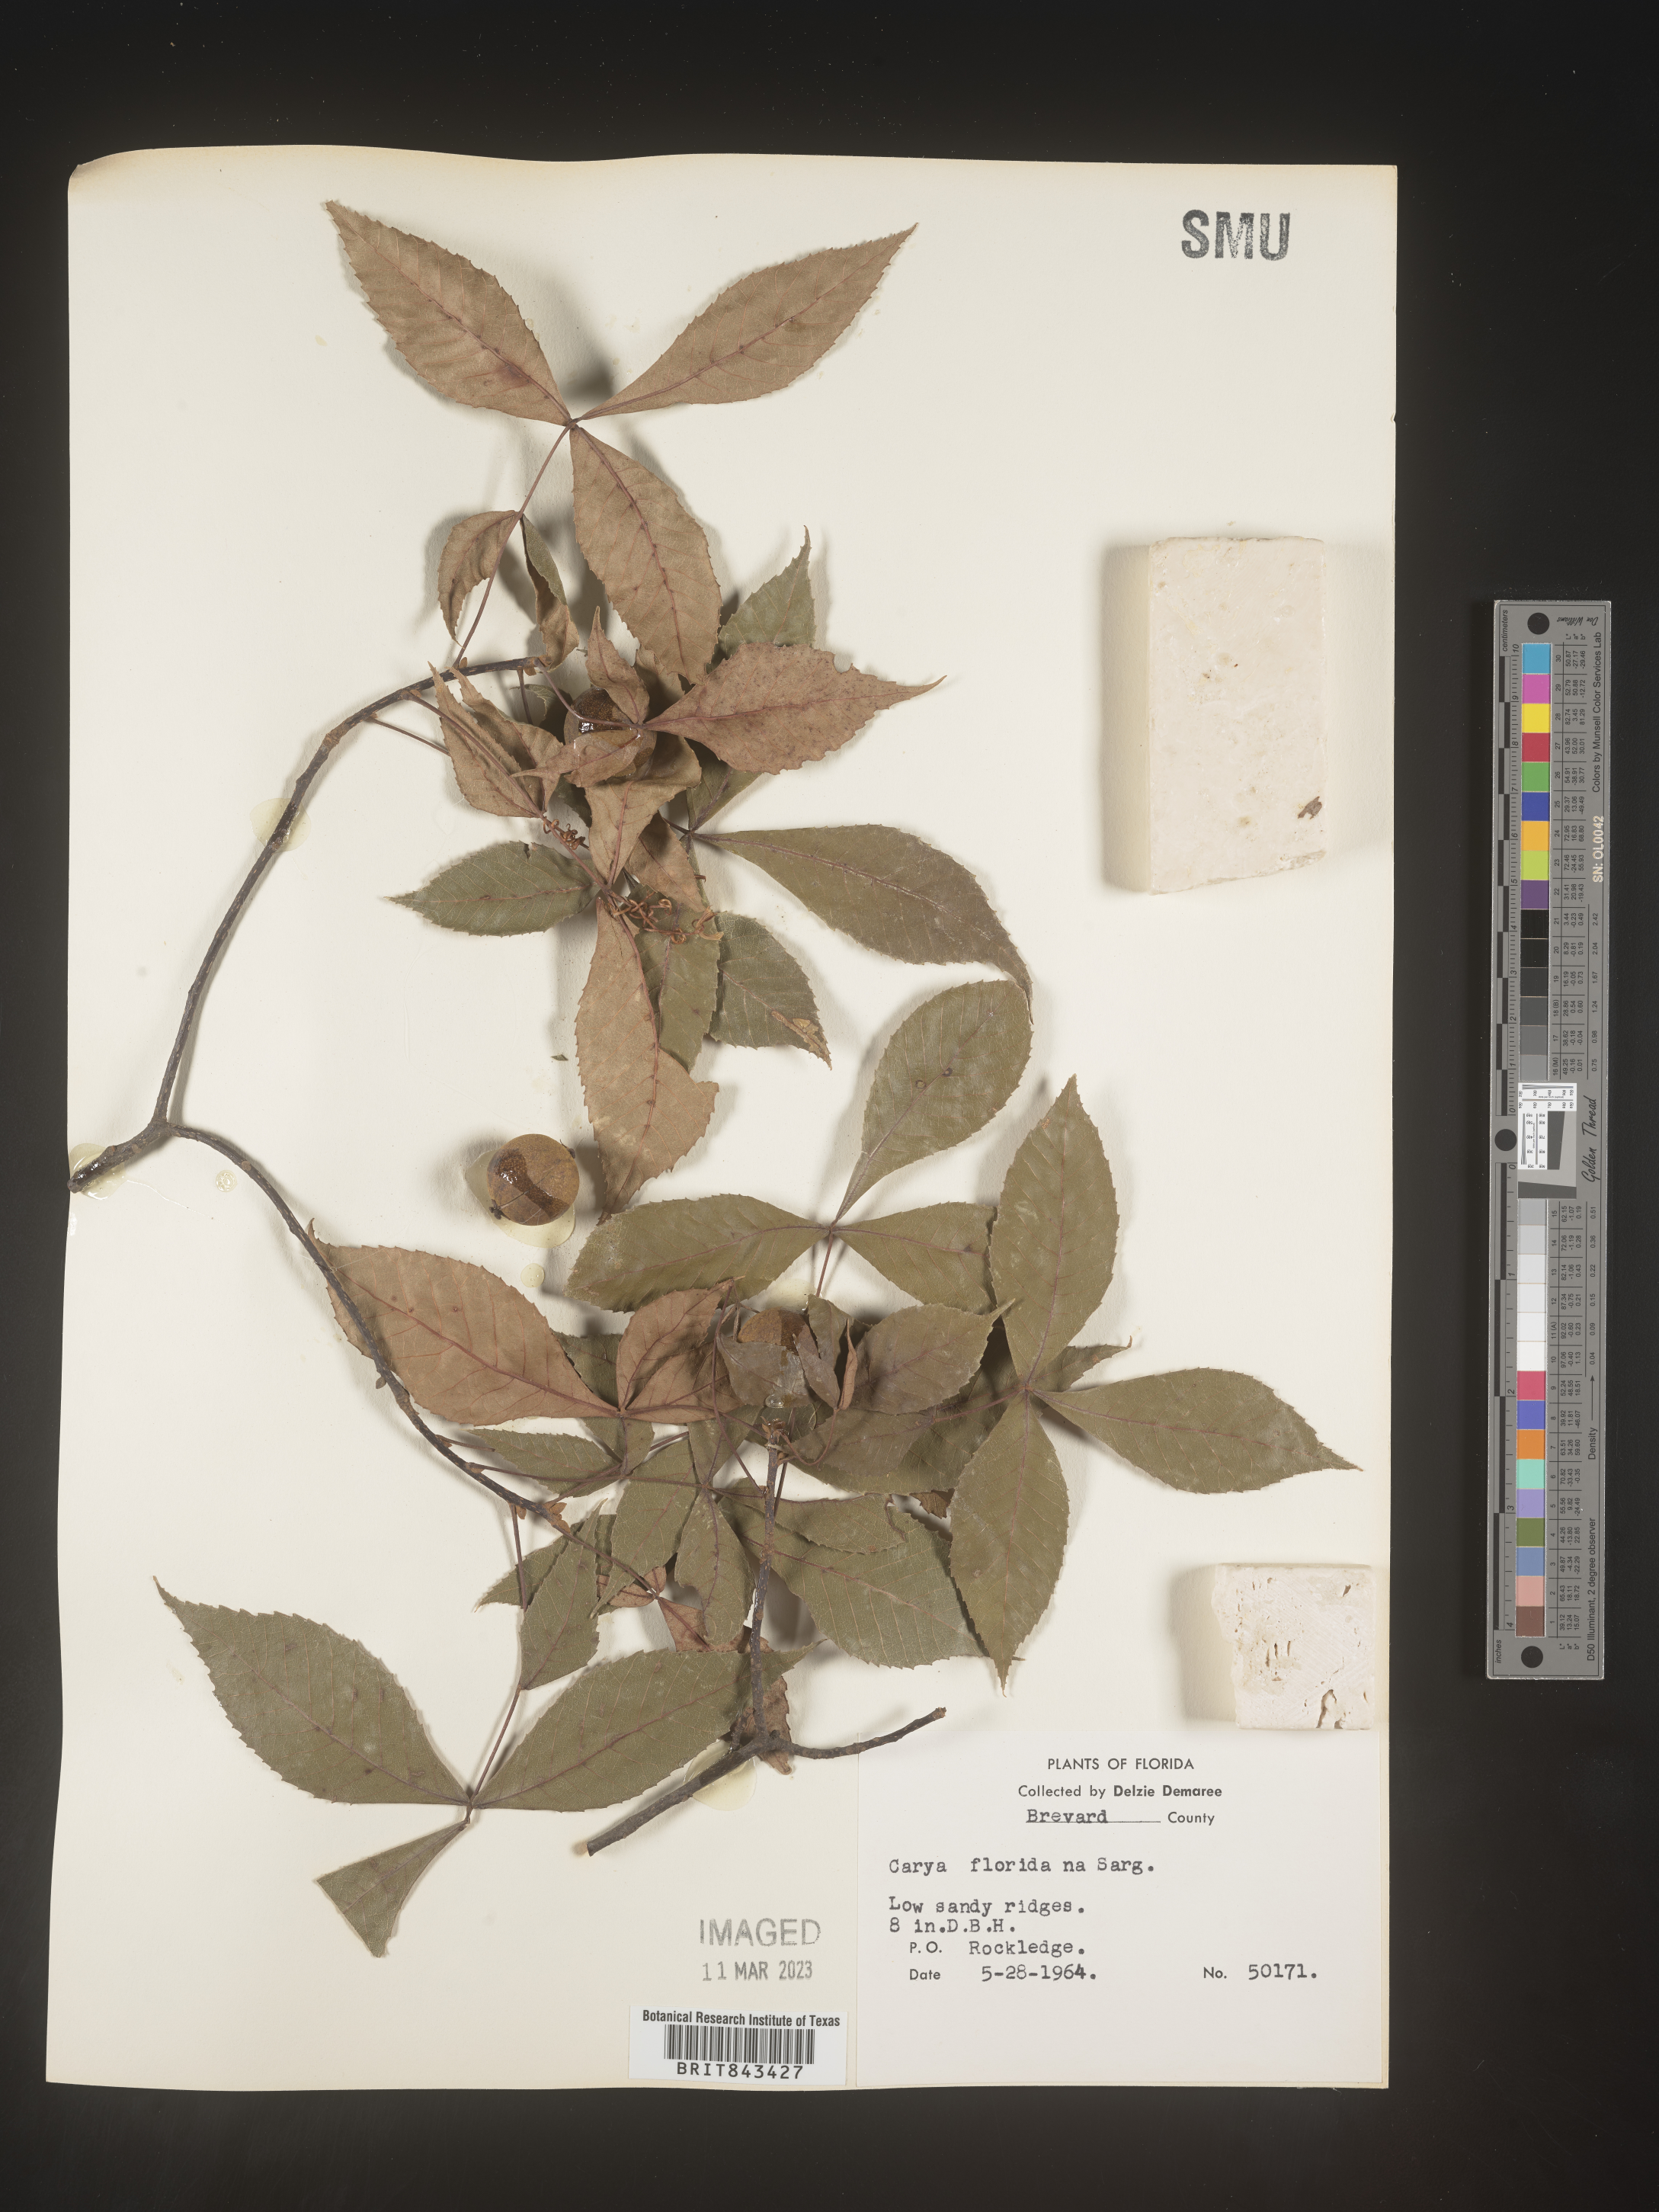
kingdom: Plantae
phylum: Tracheophyta
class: Magnoliopsida
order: Fagales
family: Juglandaceae
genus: Carya
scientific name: Carya glabra
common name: Pignut hickory
